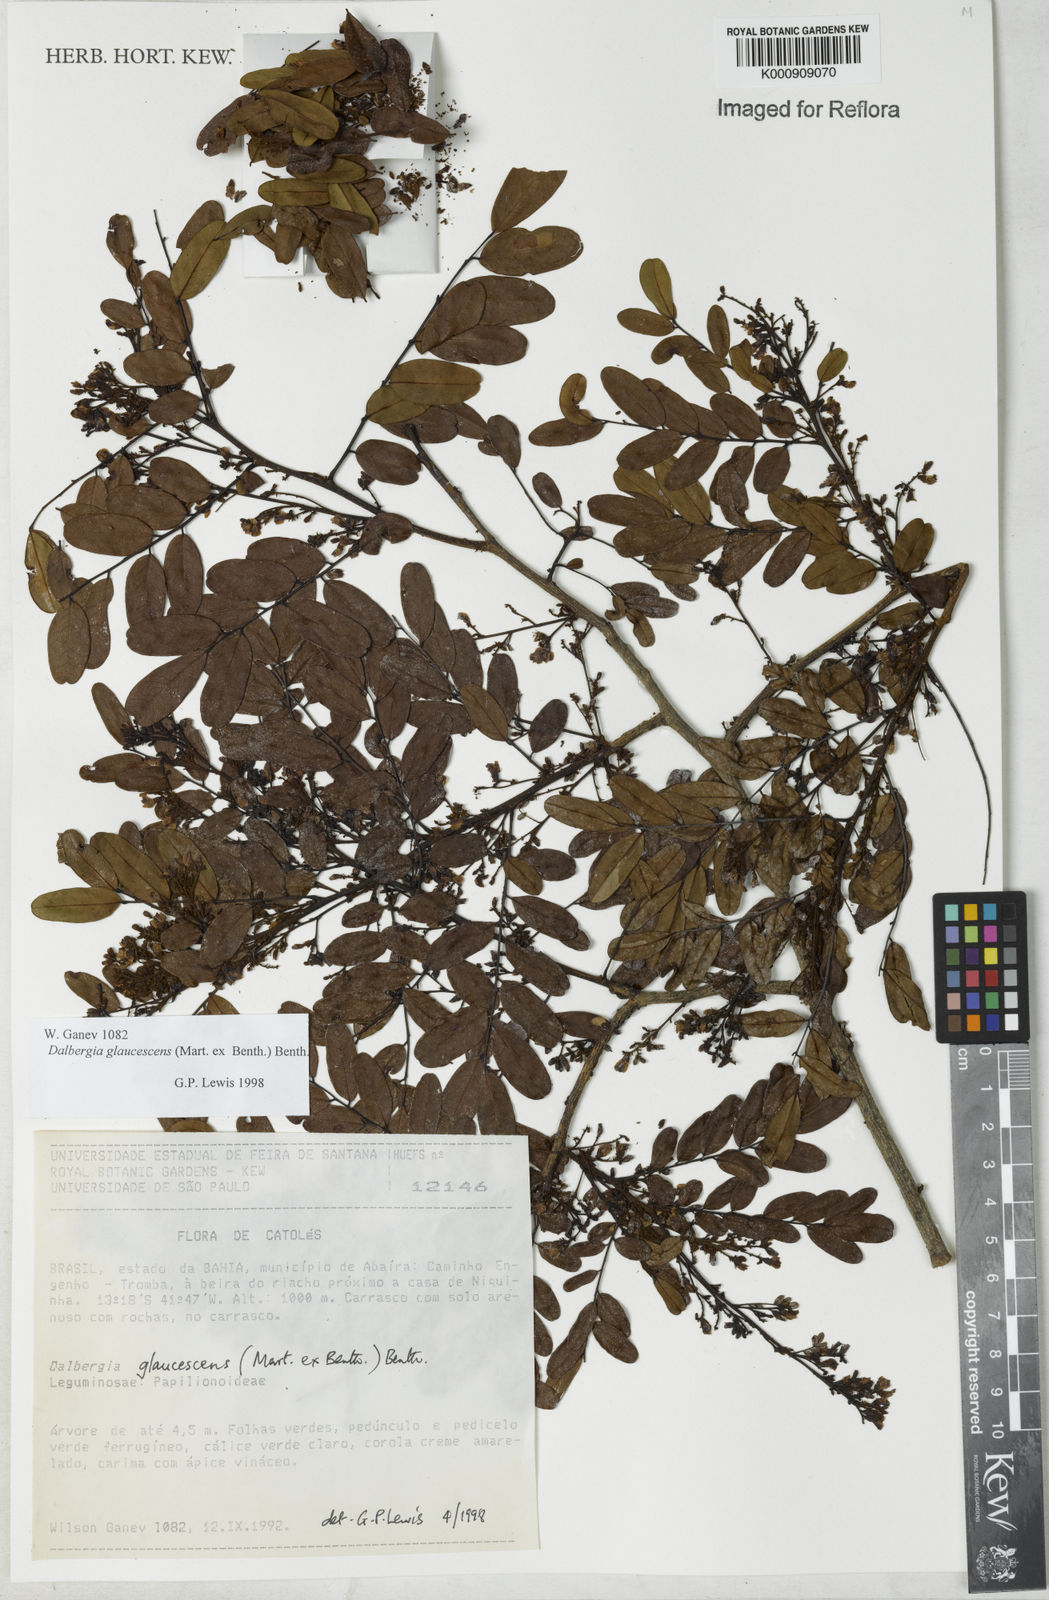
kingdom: Plantae
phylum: Tracheophyta
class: Magnoliopsida
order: Fabales
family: Fabaceae
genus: Dalbergia
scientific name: Dalbergia glaucescens
